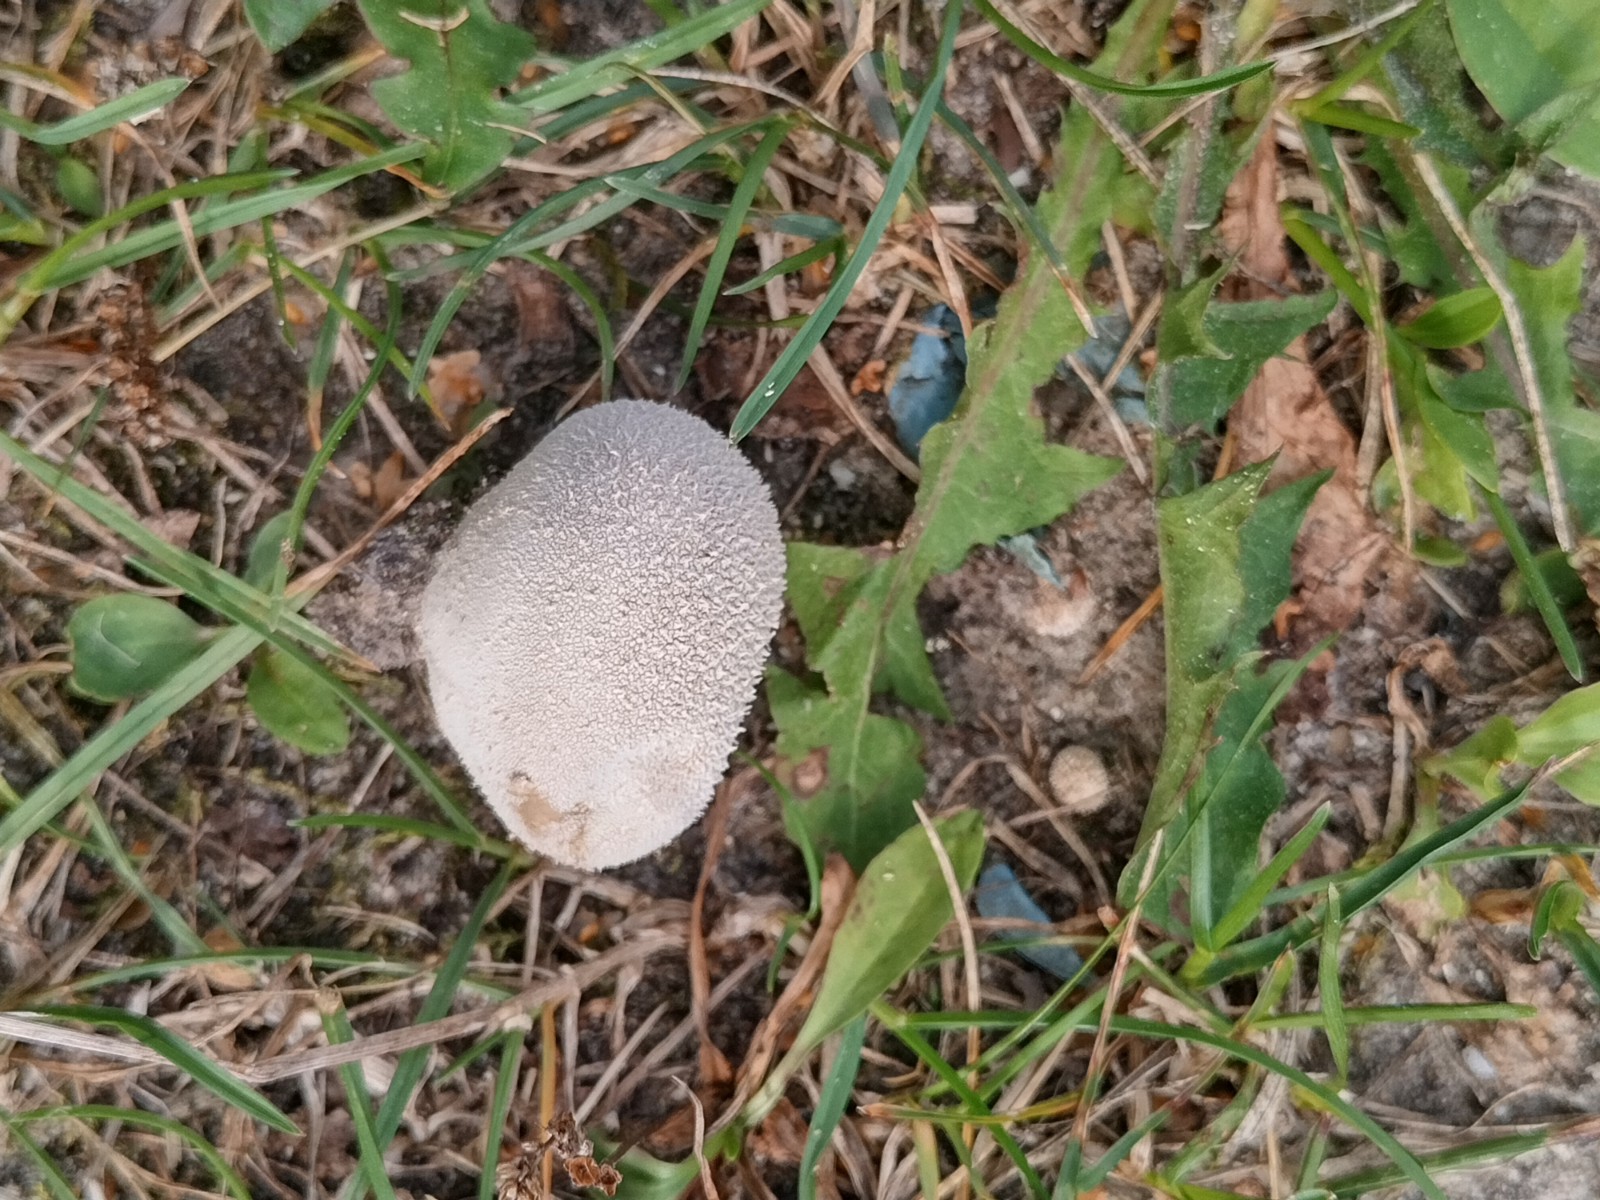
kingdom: Fungi
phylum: Basidiomycota
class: Agaricomycetes
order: Agaricales
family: Lycoperdaceae
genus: Lycoperdon
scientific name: Lycoperdon pratense
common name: flad støvbold
